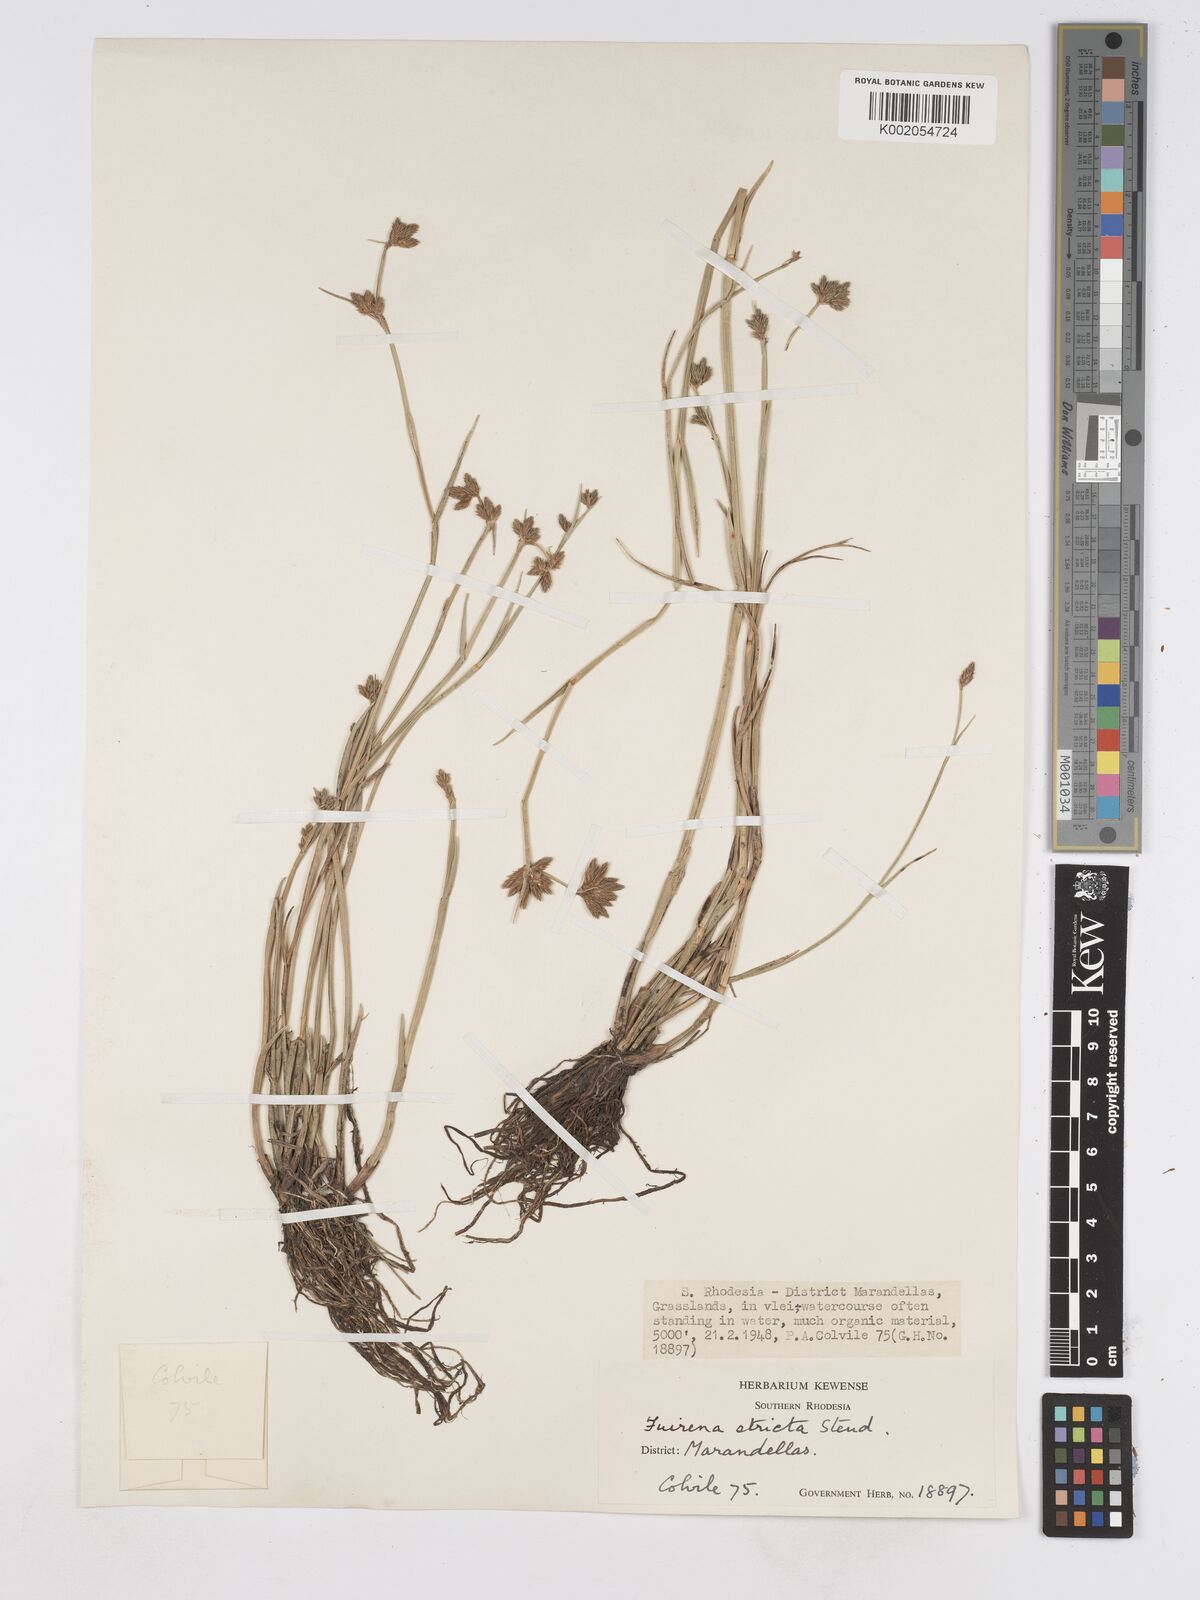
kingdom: Plantae
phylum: Tracheophyta
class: Liliopsida
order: Poales
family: Cyperaceae
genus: Fuirena
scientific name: Fuirena stricta
